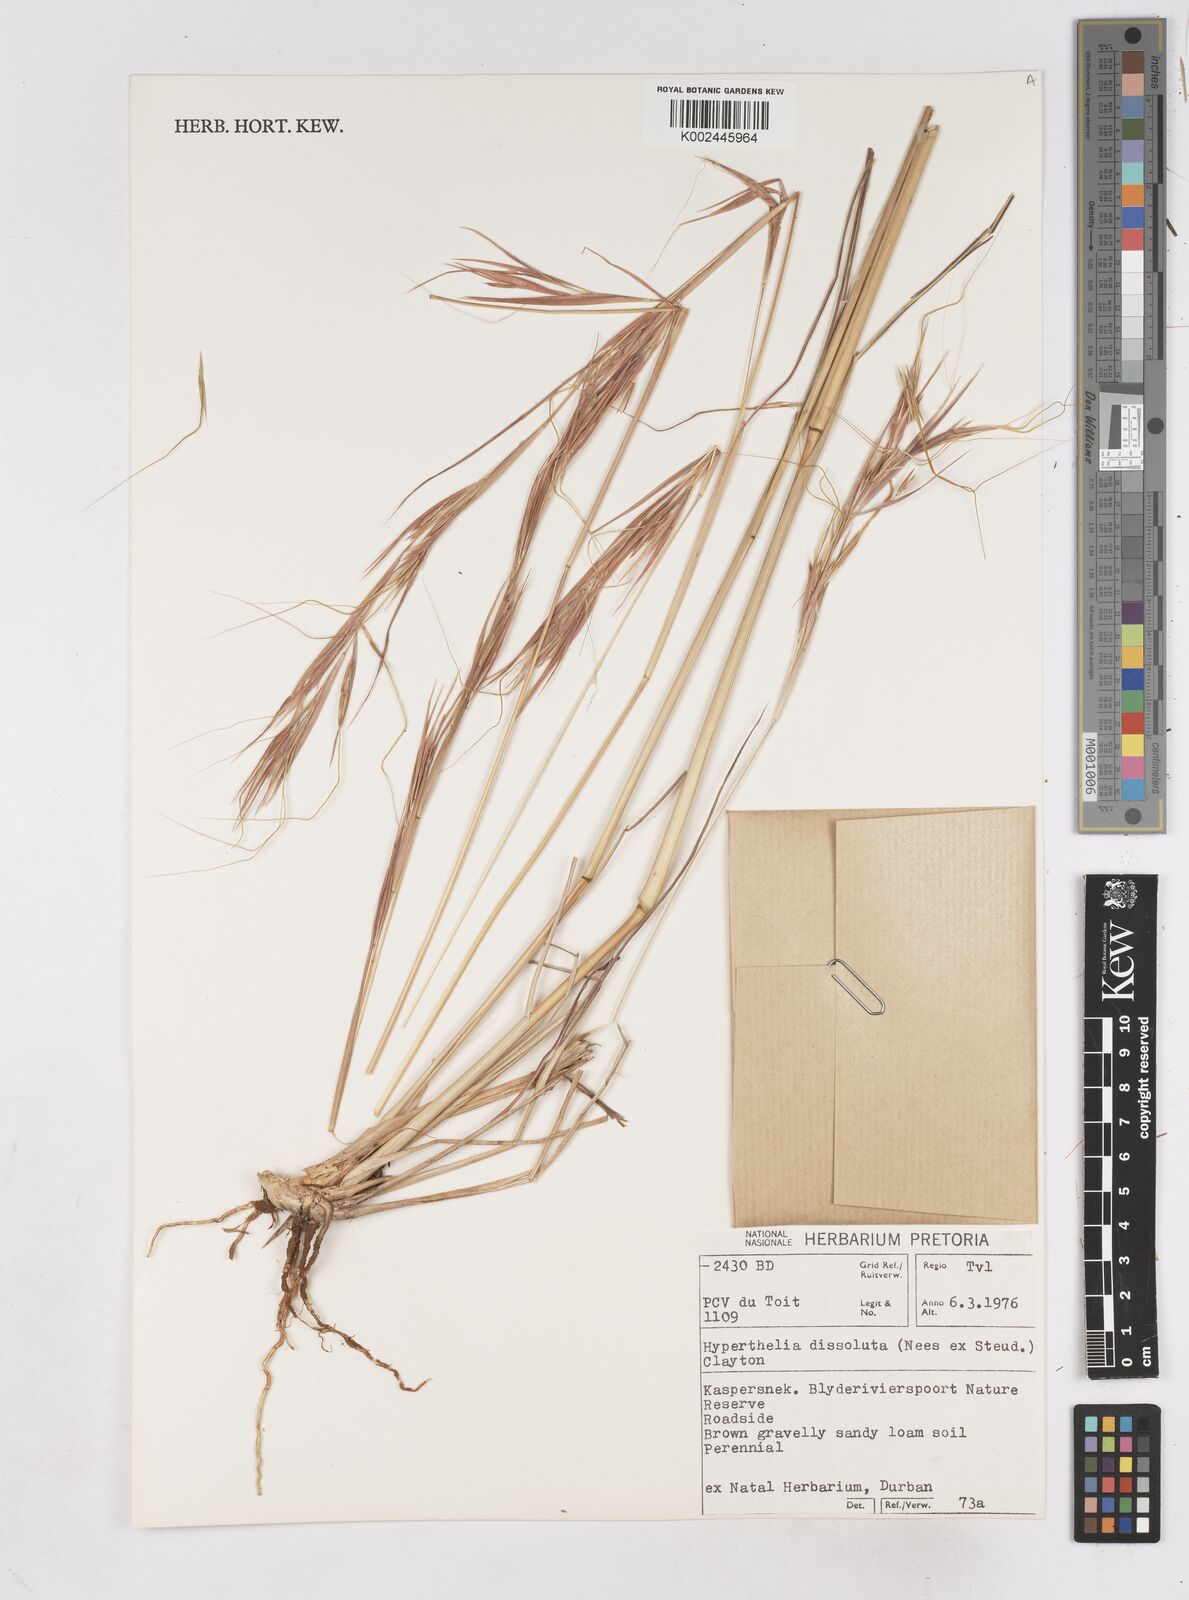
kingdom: Plantae
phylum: Tracheophyta
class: Liliopsida
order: Poales
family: Poaceae
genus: Hyperthelia
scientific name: Hyperthelia dissoluta
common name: Yellow thatching grass
